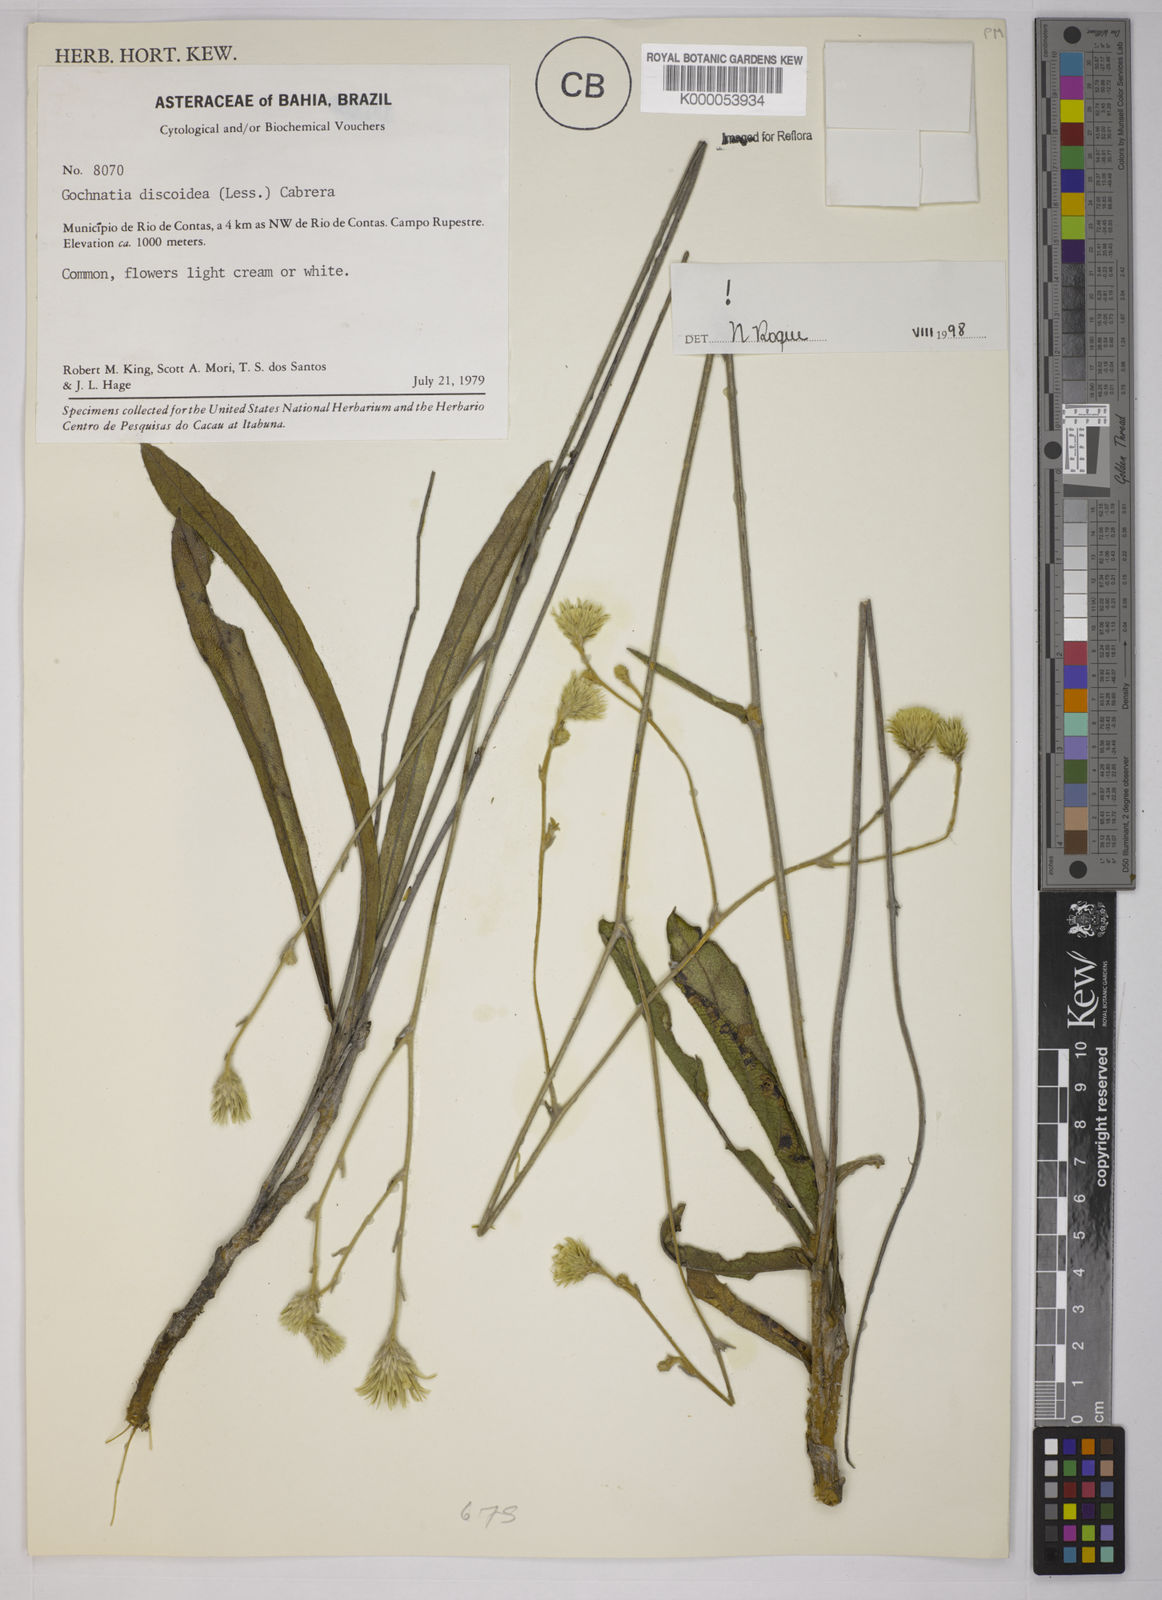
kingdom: Plantae
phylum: Tracheophyta
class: Magnoliopsida
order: Asterales
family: Asteraceae
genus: Richterago
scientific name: Richterago discoidea
